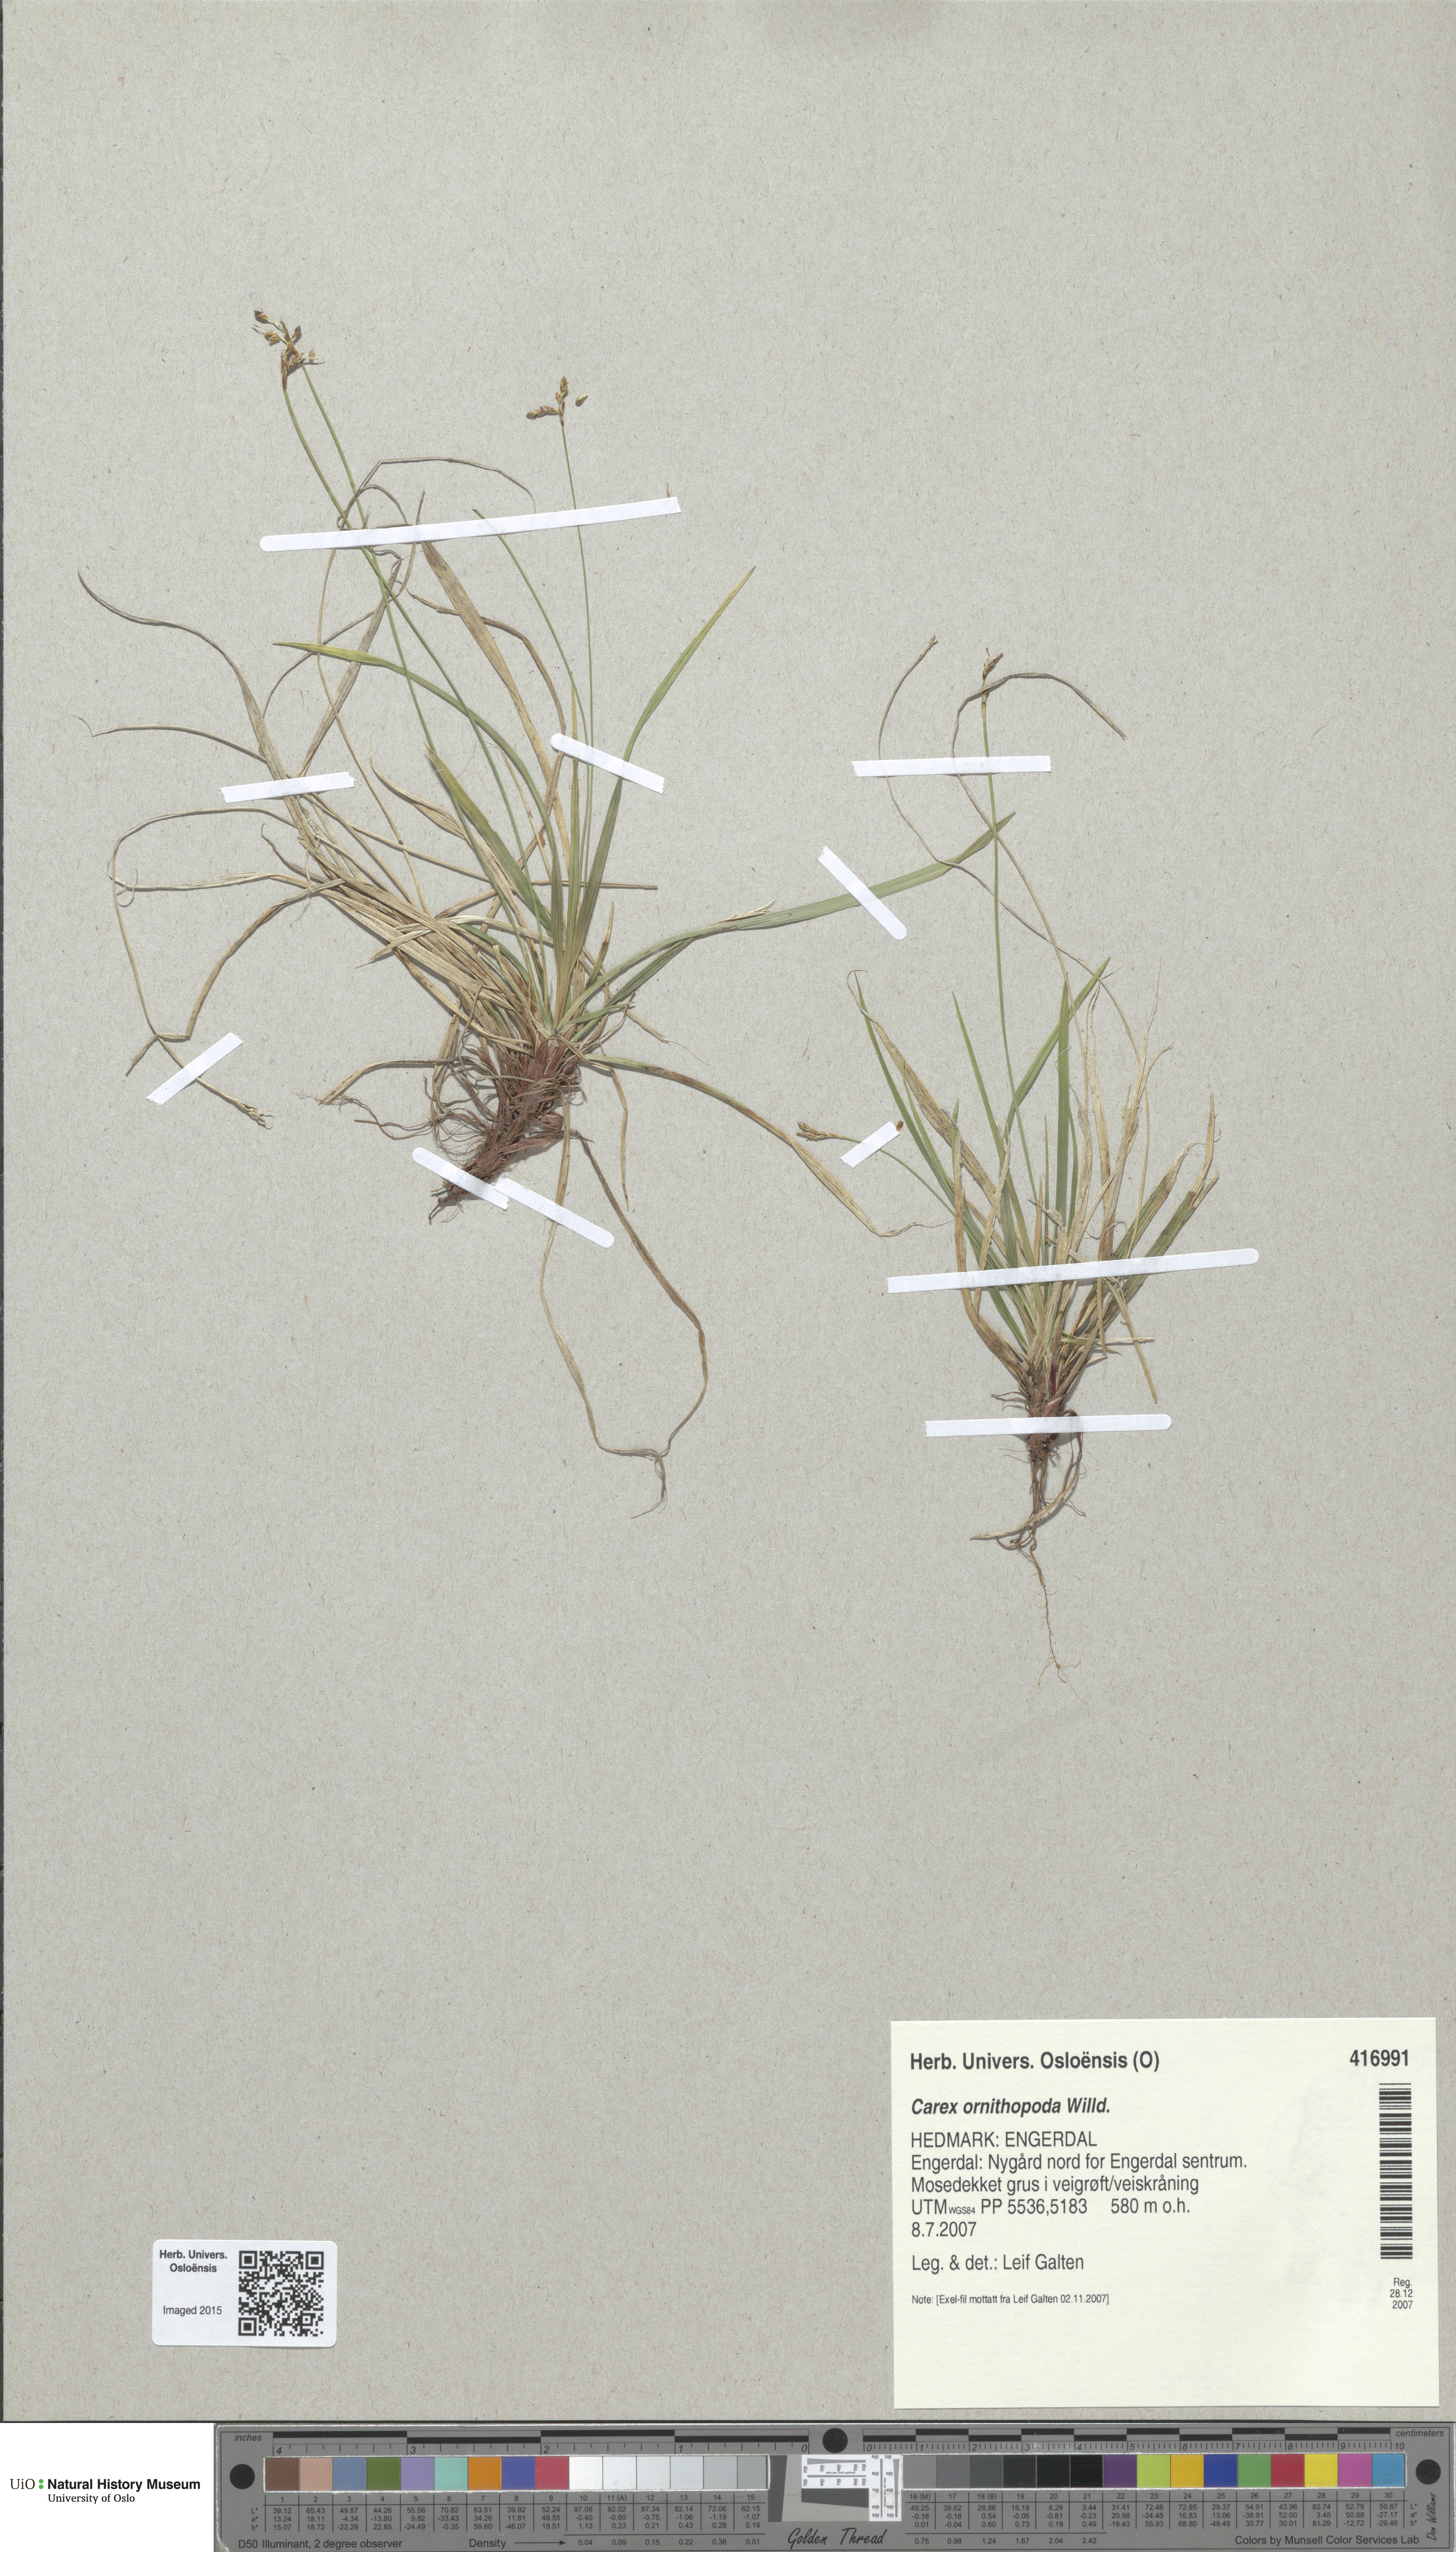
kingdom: Plantae
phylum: Tracheophyta
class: Liliopsida
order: Poales
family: Cyperaceae
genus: Carex
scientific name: Carex ornithopoda
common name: Bird's-foot sedge
